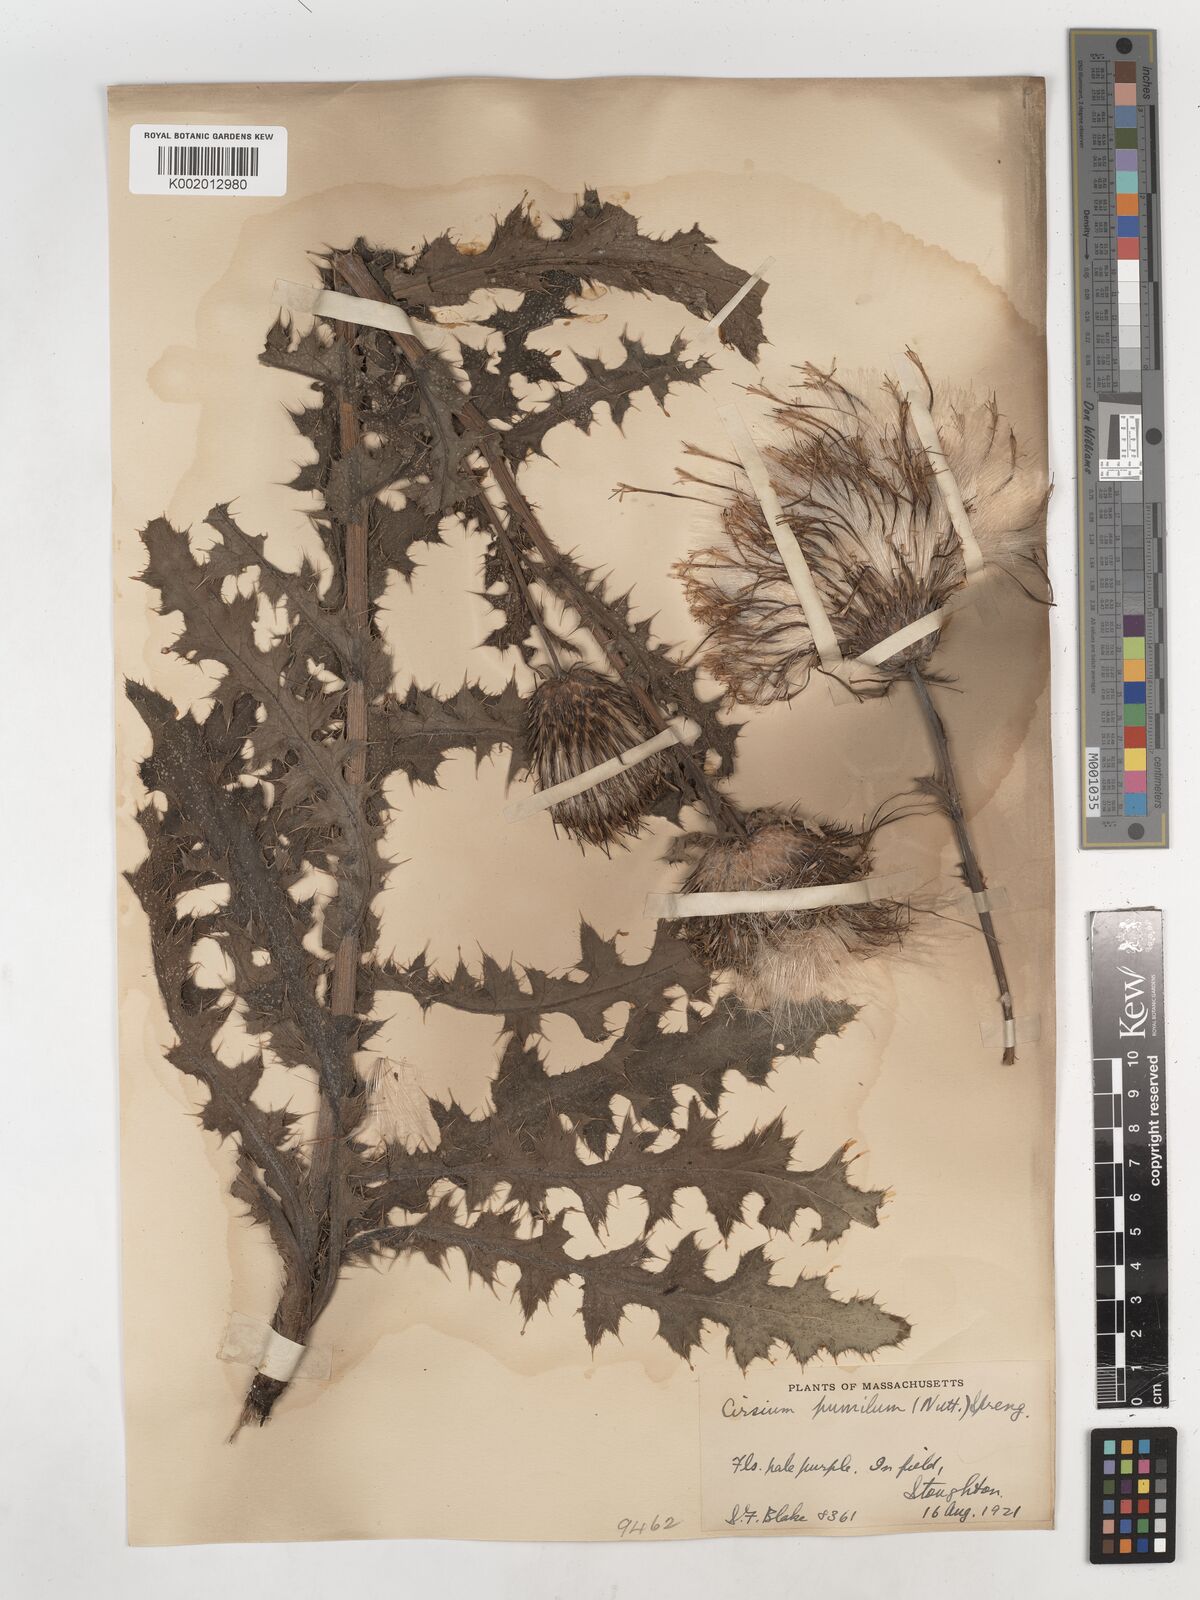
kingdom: Plantae
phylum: Tracheophyta
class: Magnoliopsida
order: Asterales
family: Asteraceae
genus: Cirsium
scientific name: Cirsium pumilum
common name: Pasture thistle
